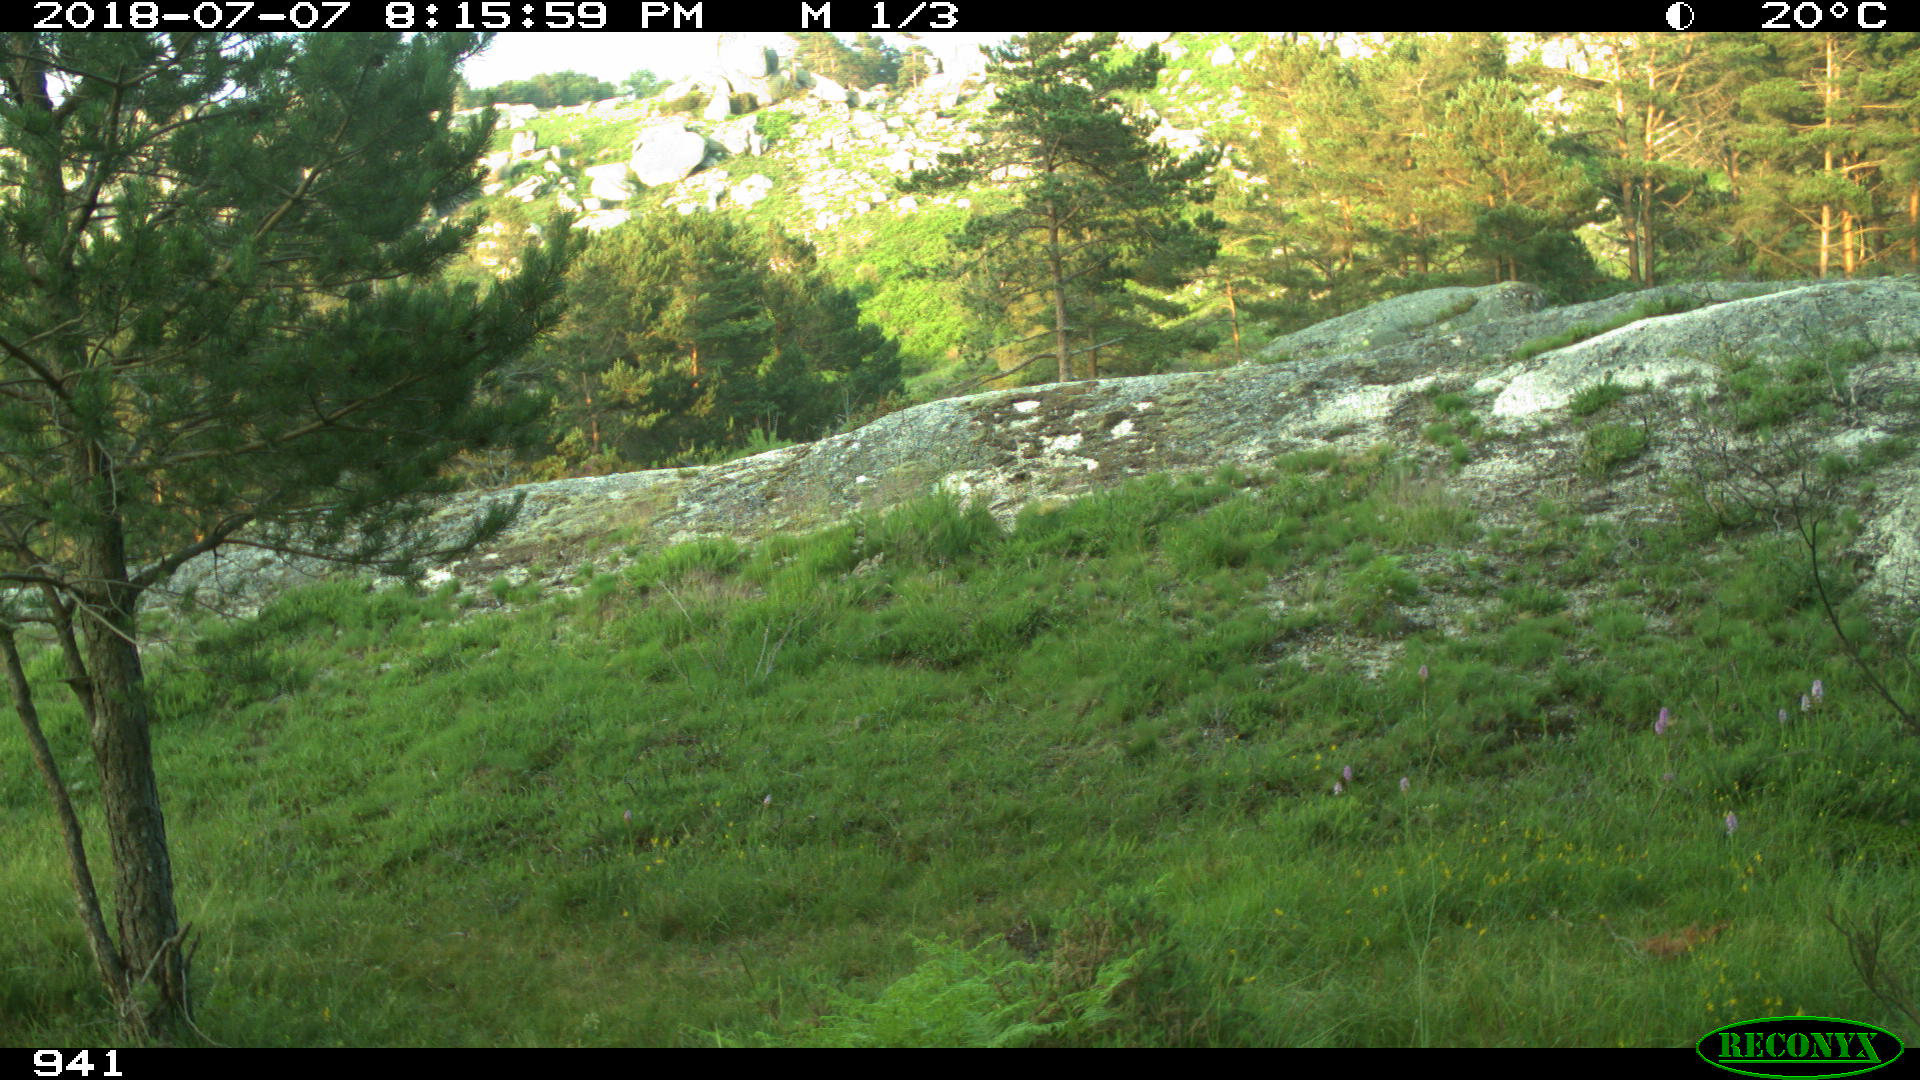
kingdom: Animalia
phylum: Chordata
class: Mammalia
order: Perissodactyla
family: Equidae
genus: Equus
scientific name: Equus caballus
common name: Horse
